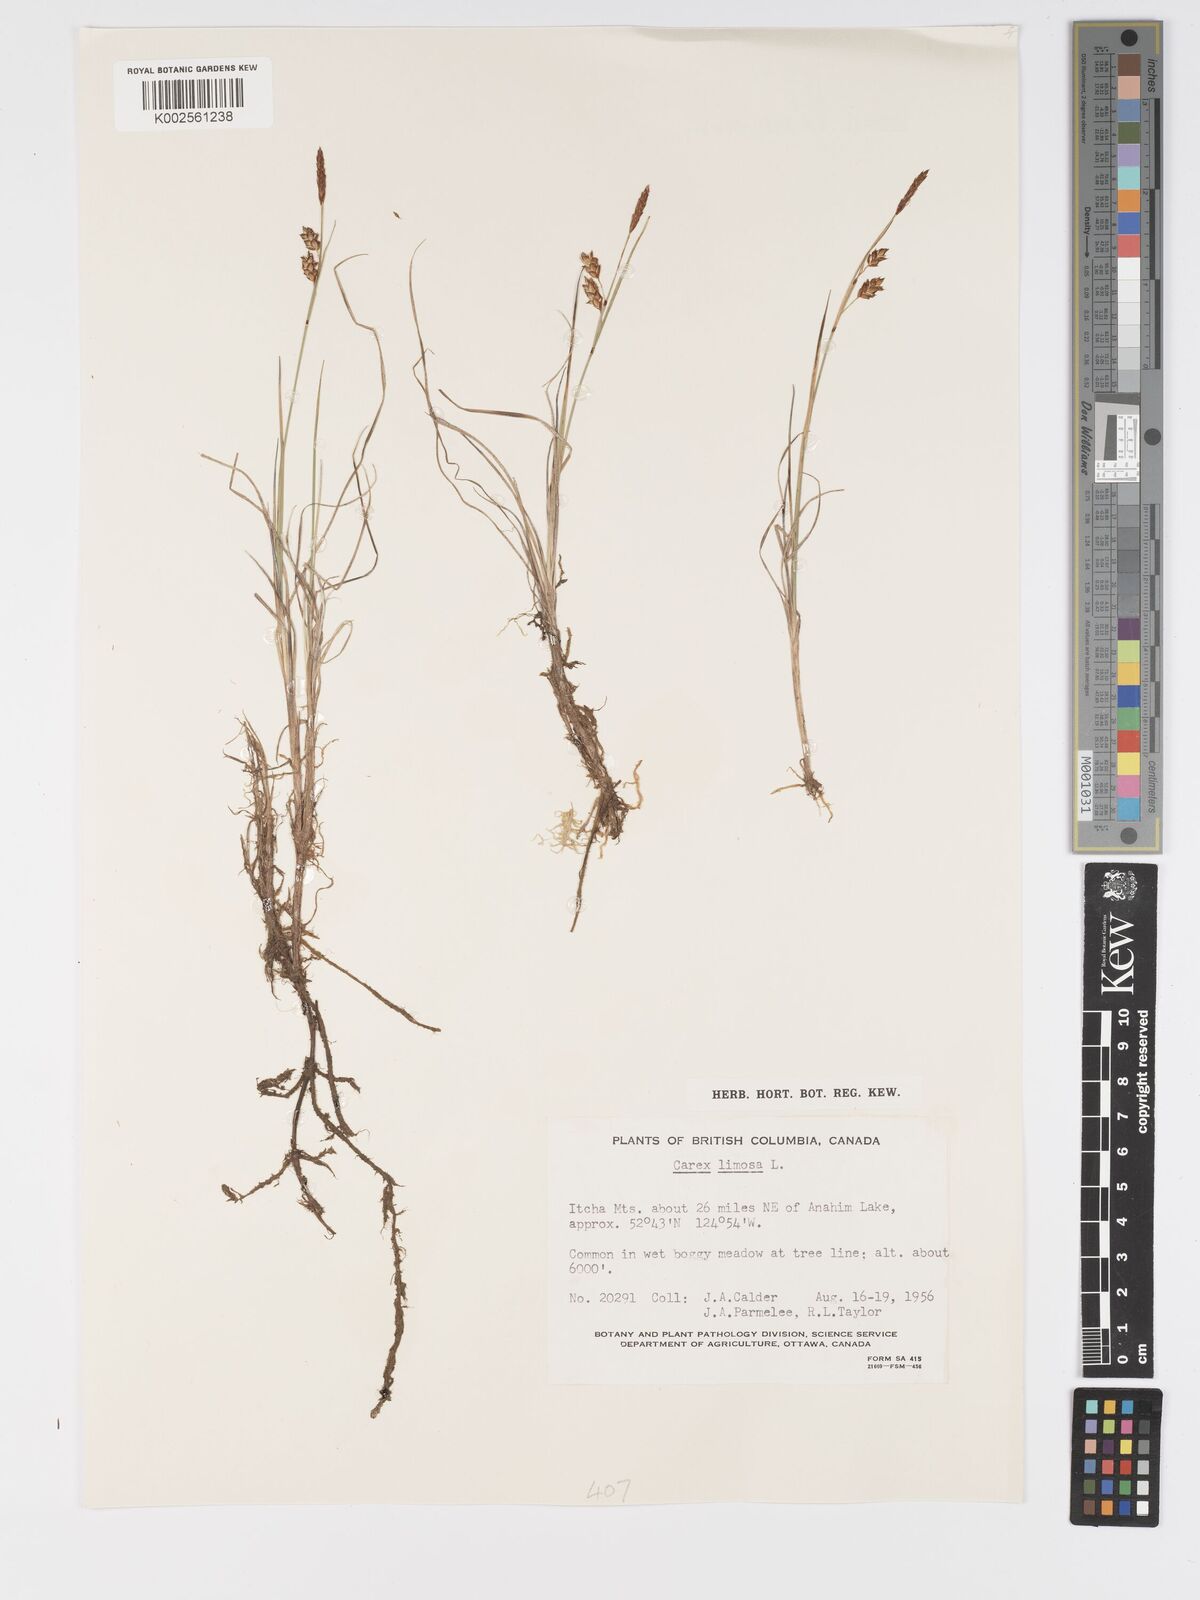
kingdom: Plantae
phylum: Tracheophyta
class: Liliopsida
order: Poales
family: Cyperaceae
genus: Carex
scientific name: Carex limosa
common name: Bog sedge
